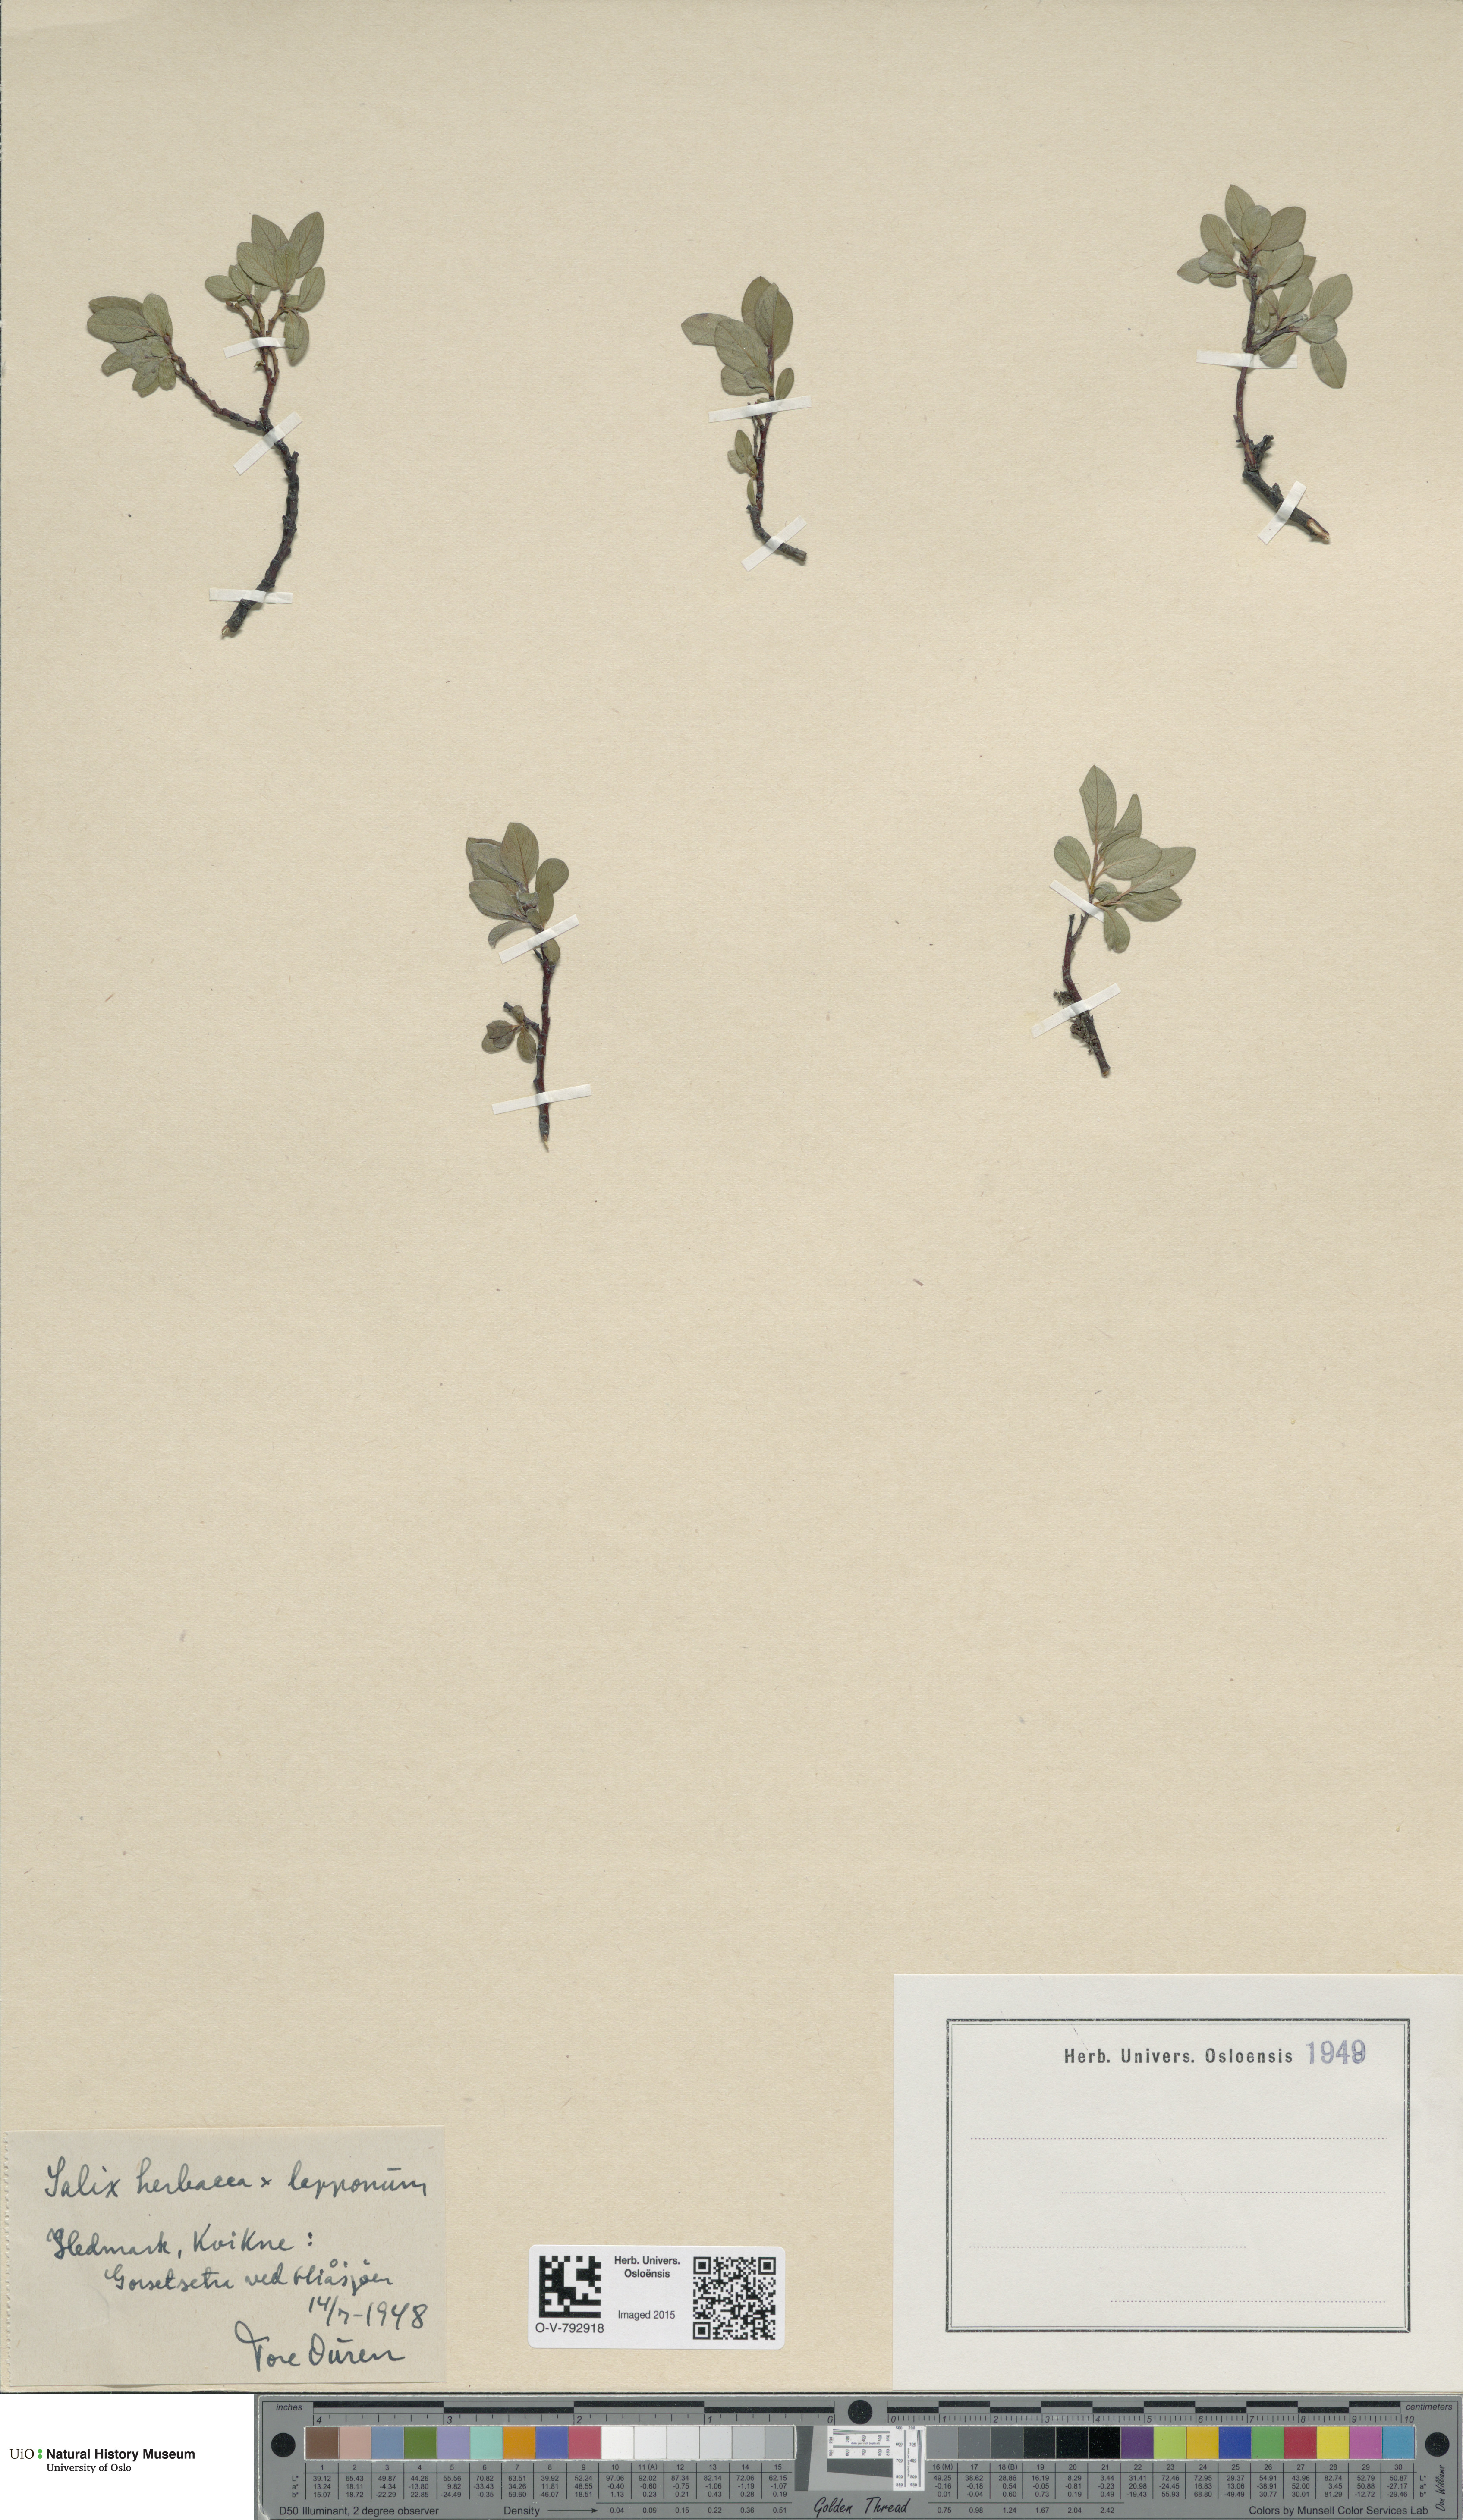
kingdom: Plantae
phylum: Tracheophyta
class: Magnoliopsida
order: Malpighiales
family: Salicaceae
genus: Salix
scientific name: Salix
